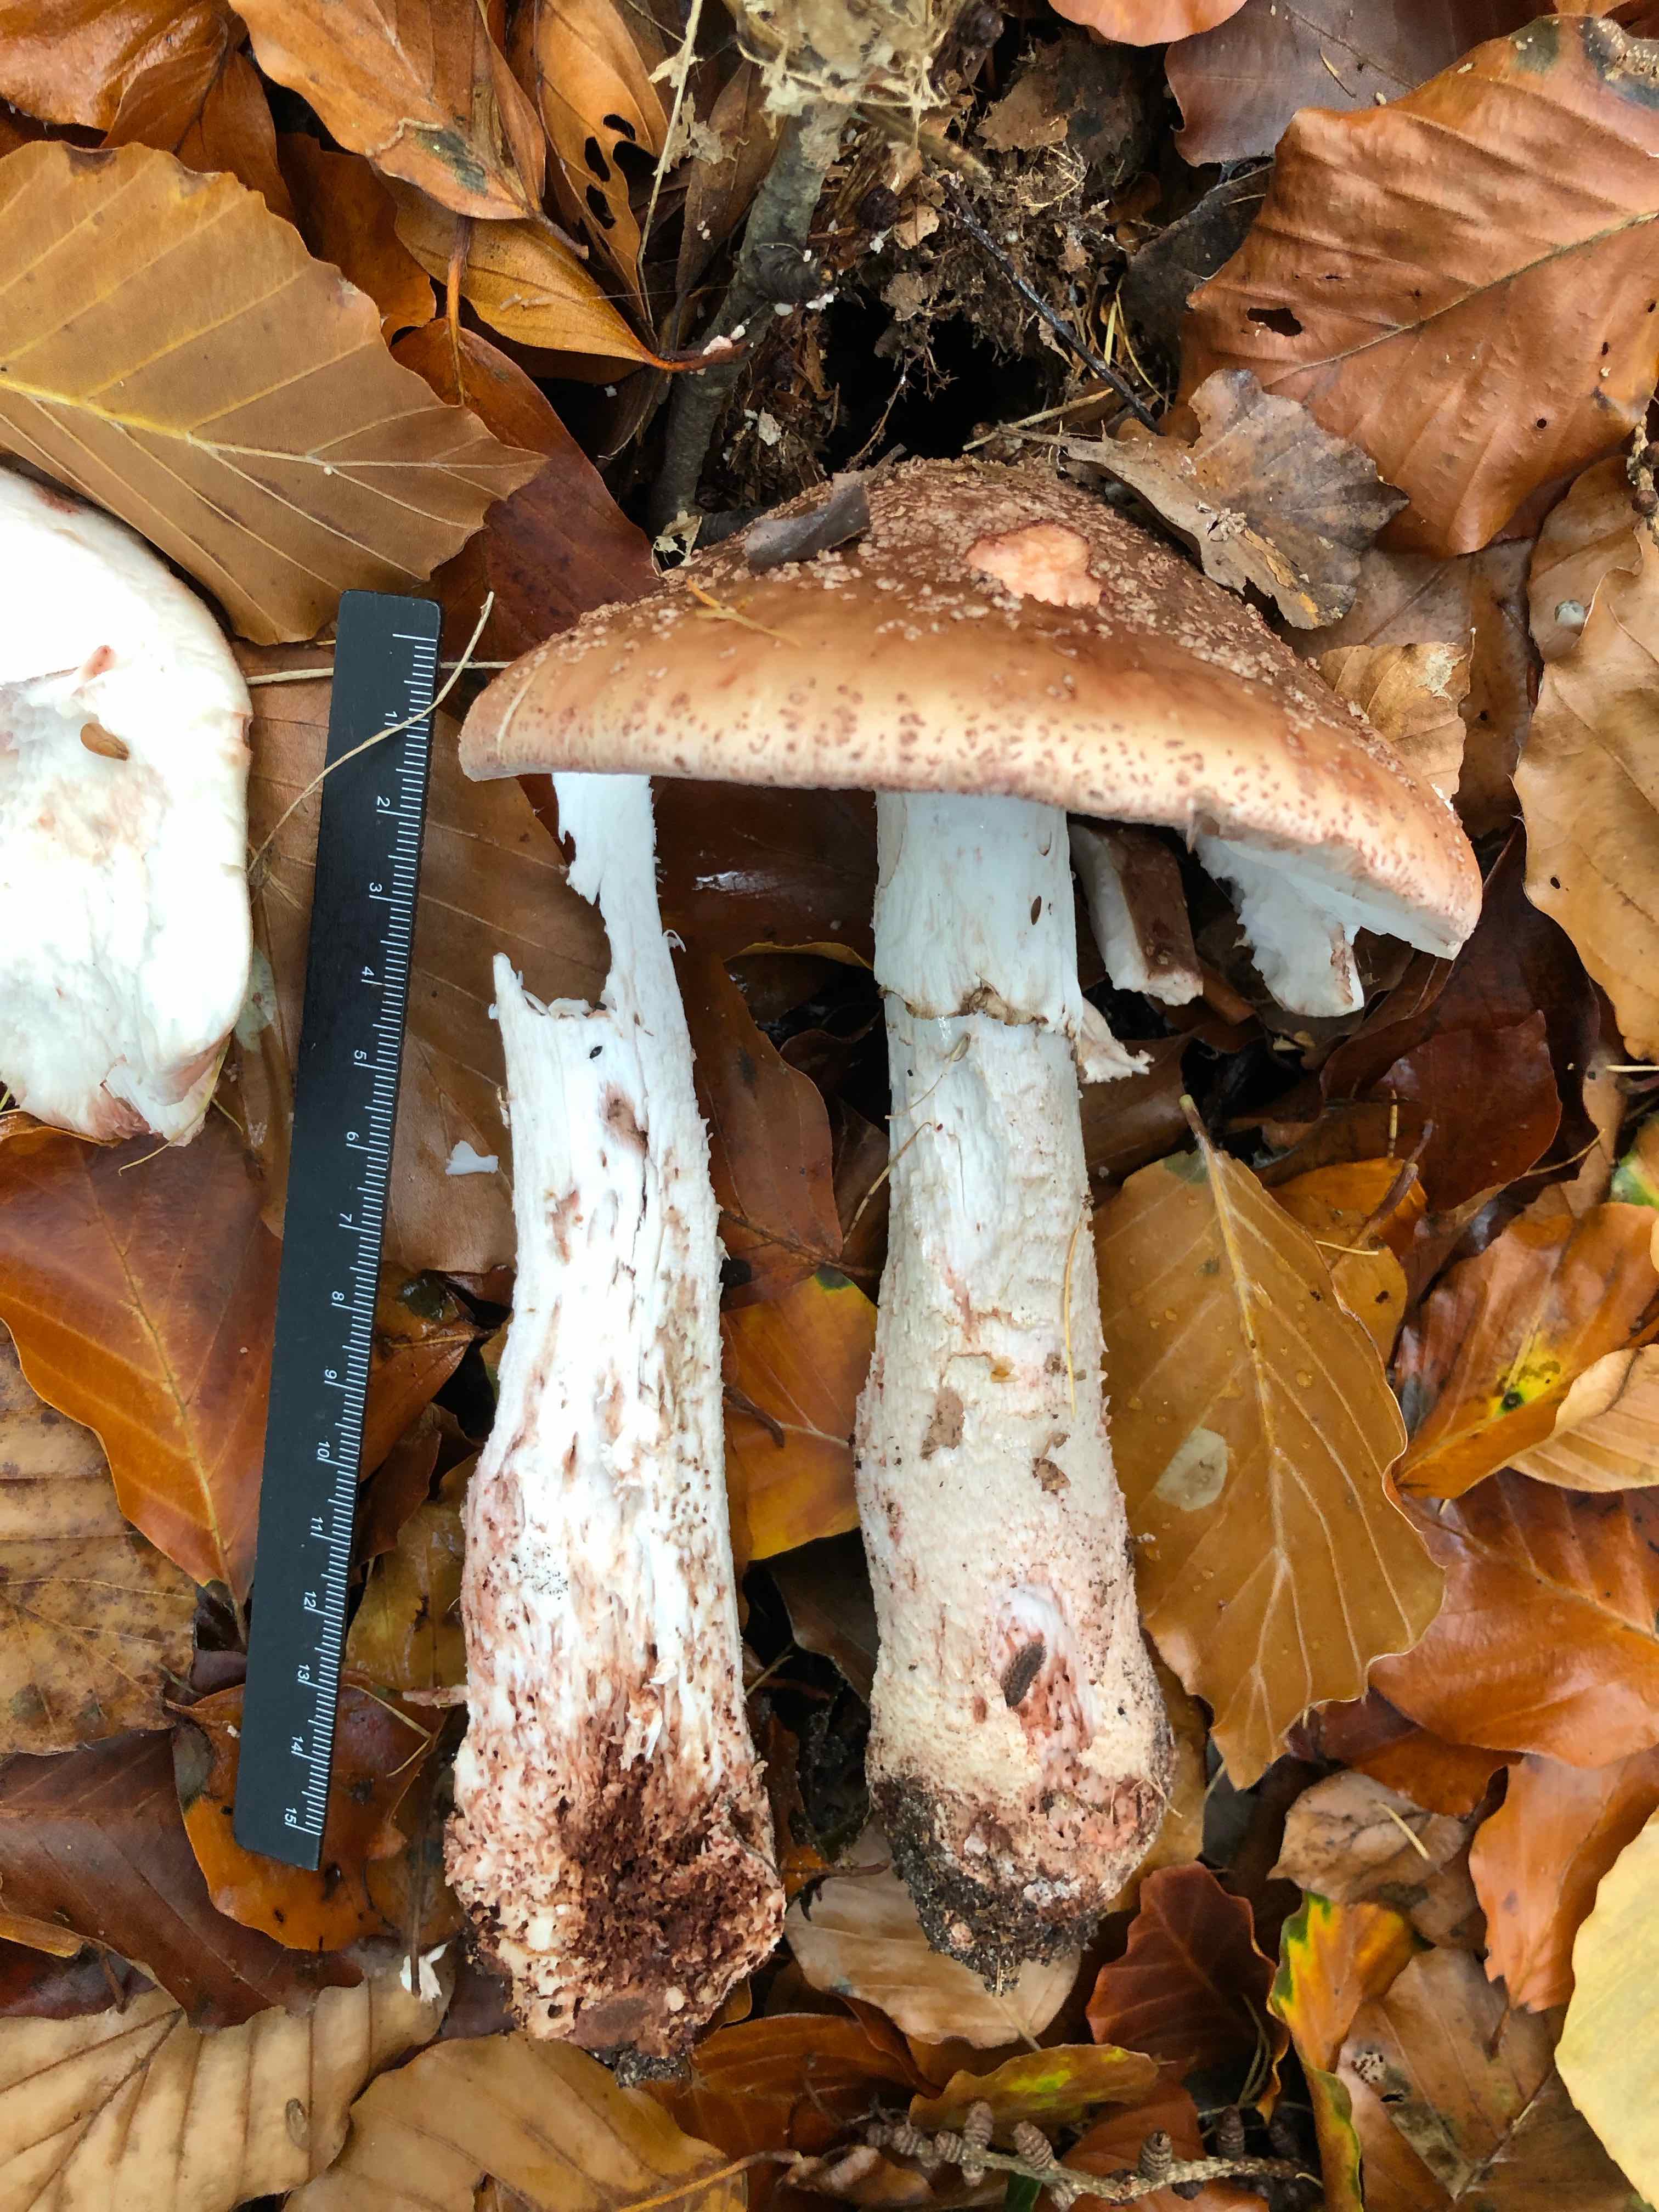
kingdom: Fungi
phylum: Basidiomycota
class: Agaricomycetes
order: Agaricales
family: Amanitaceae
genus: Amanita
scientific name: Amanita rubescens
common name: rødmende fluesvamp
